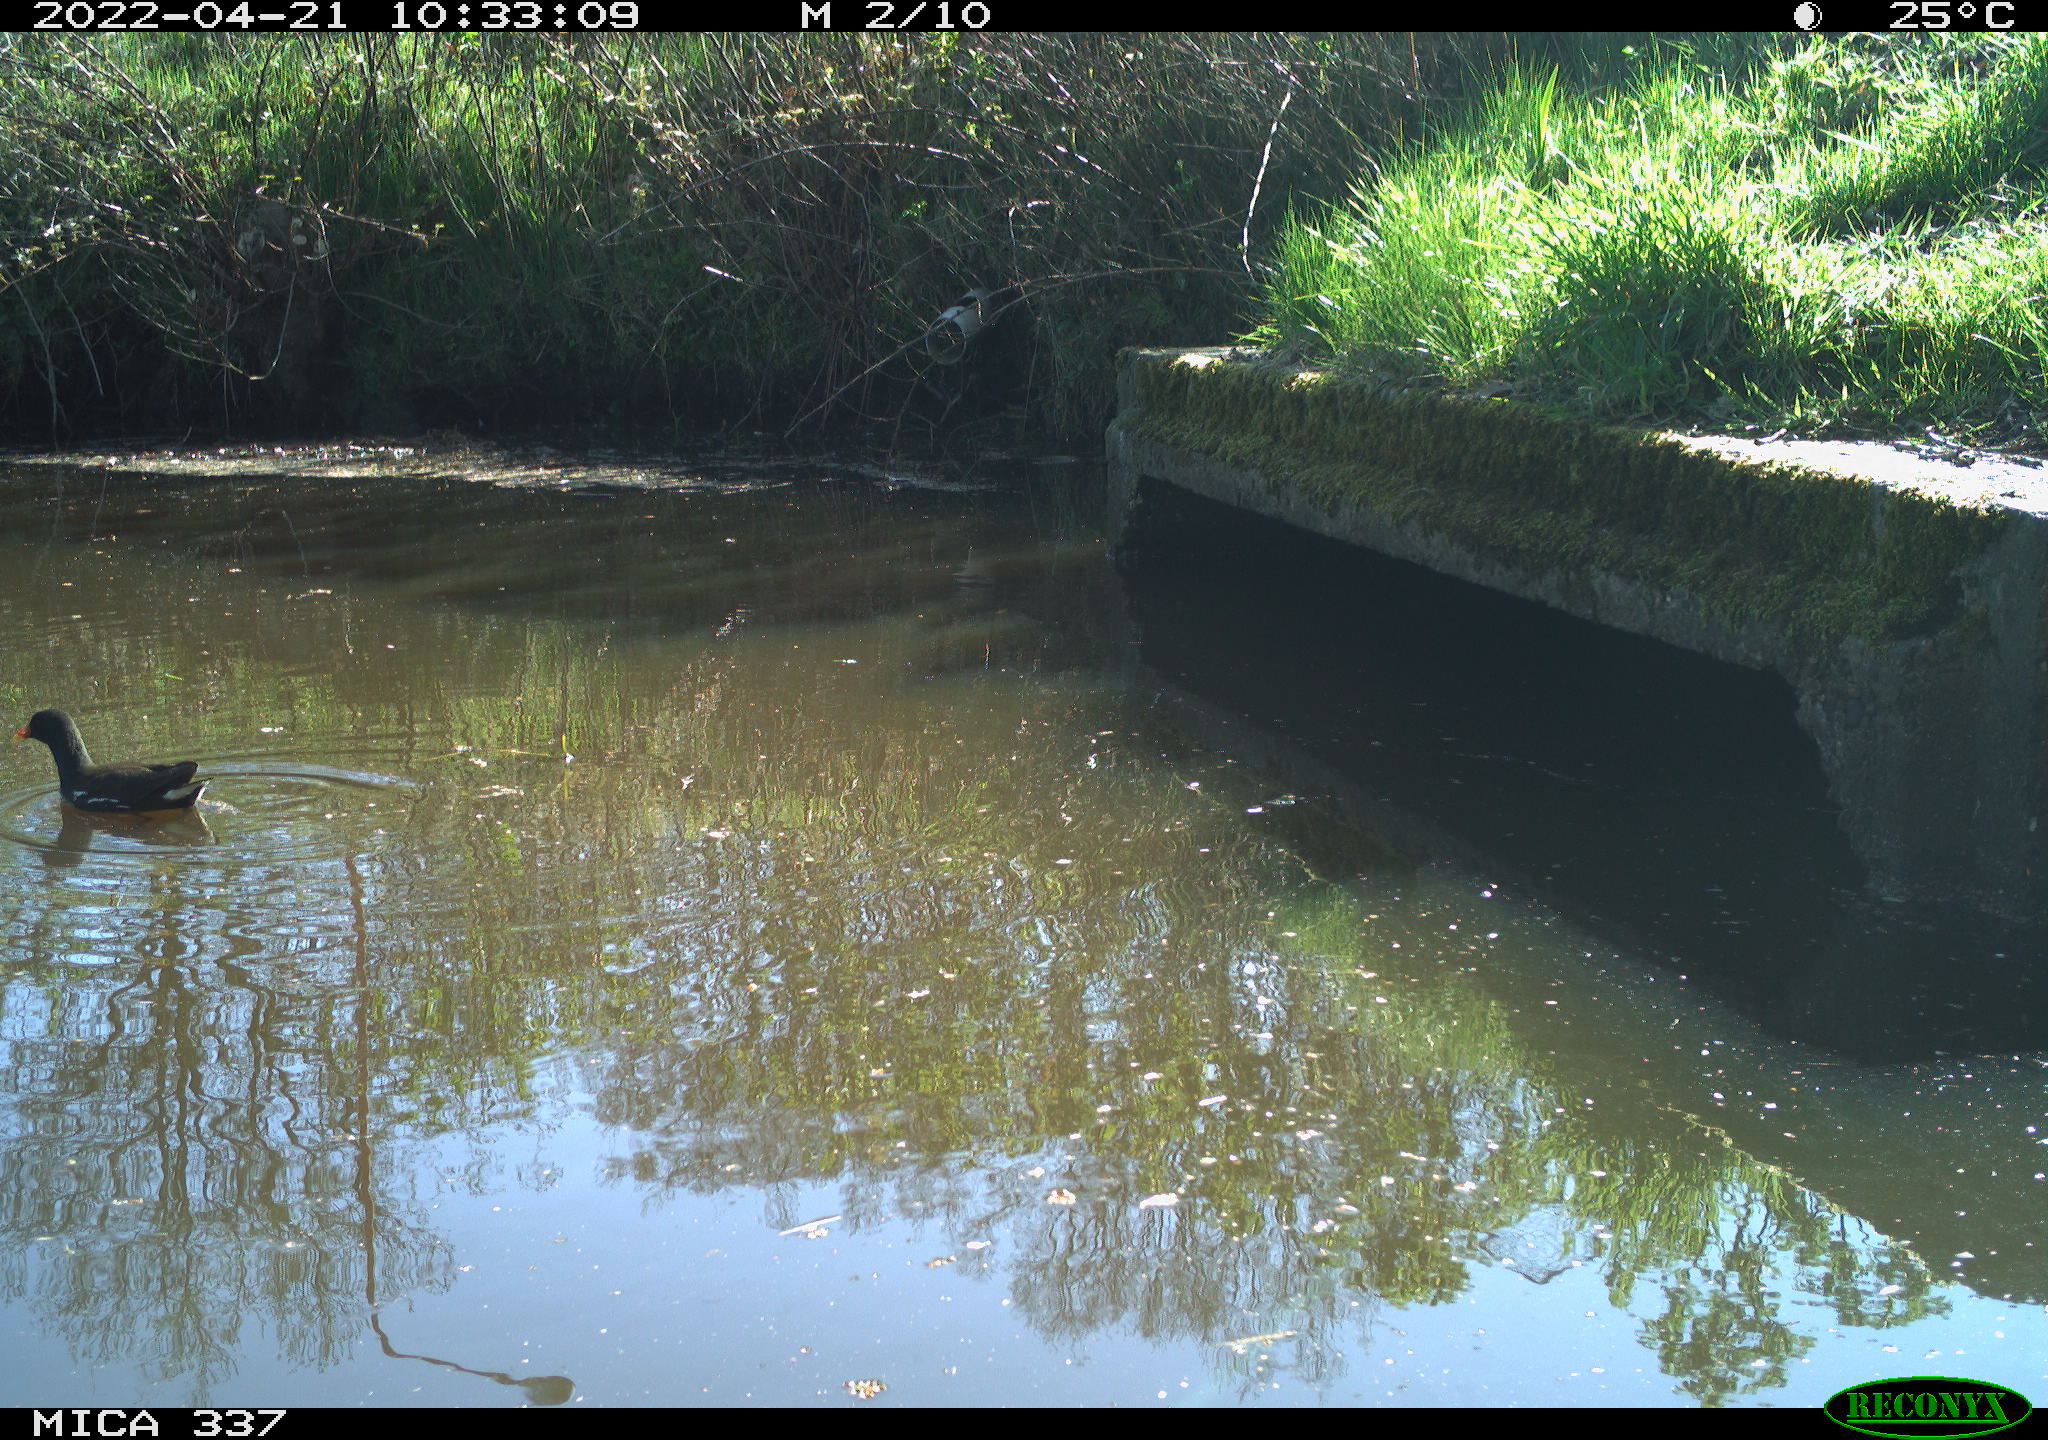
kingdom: Animalia
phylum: Chordata
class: Aves
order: Gruiformes
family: Rallidae
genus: Gallinula
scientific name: Gallinula chloropus
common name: Common moorhen
